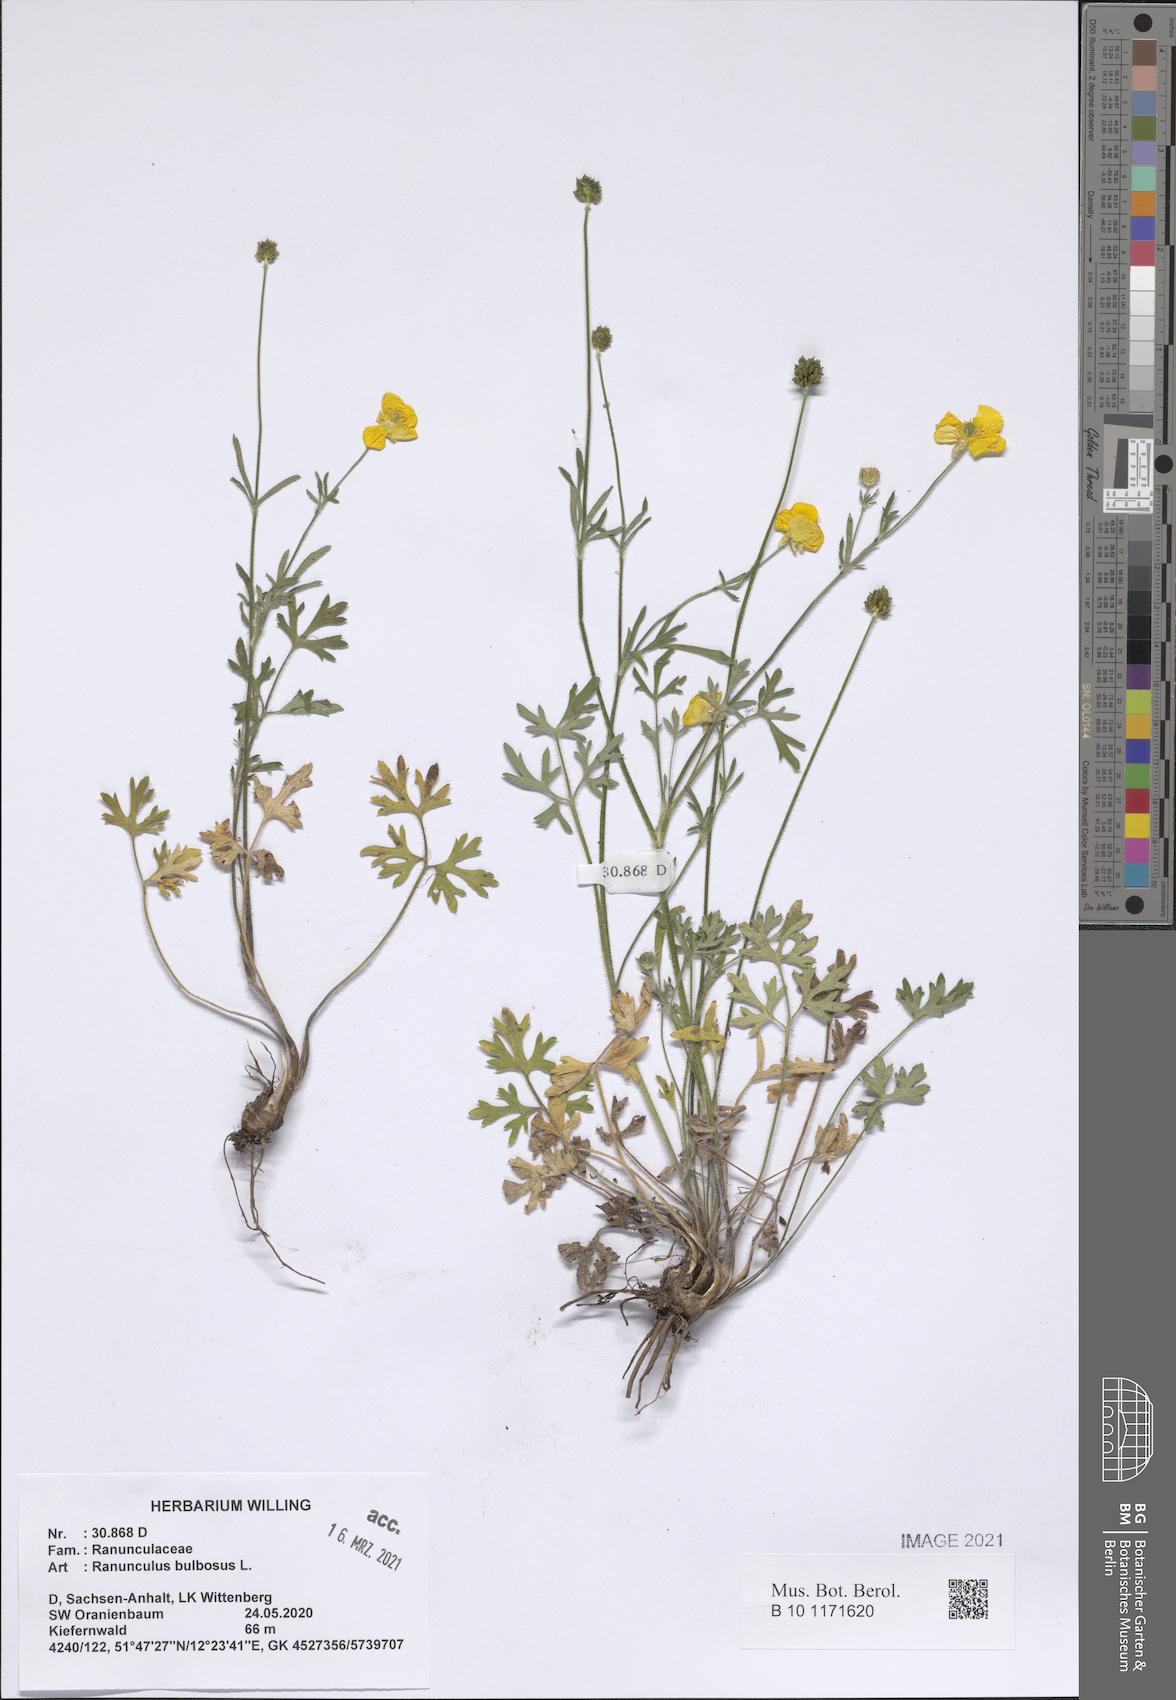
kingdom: Plantae
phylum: Tracheophyta
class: Magnoliopsida
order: Ranunculales
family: Ranunculaceae
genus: Ranunculus
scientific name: Ranunculus bulbosus
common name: Bulbous buttercup
